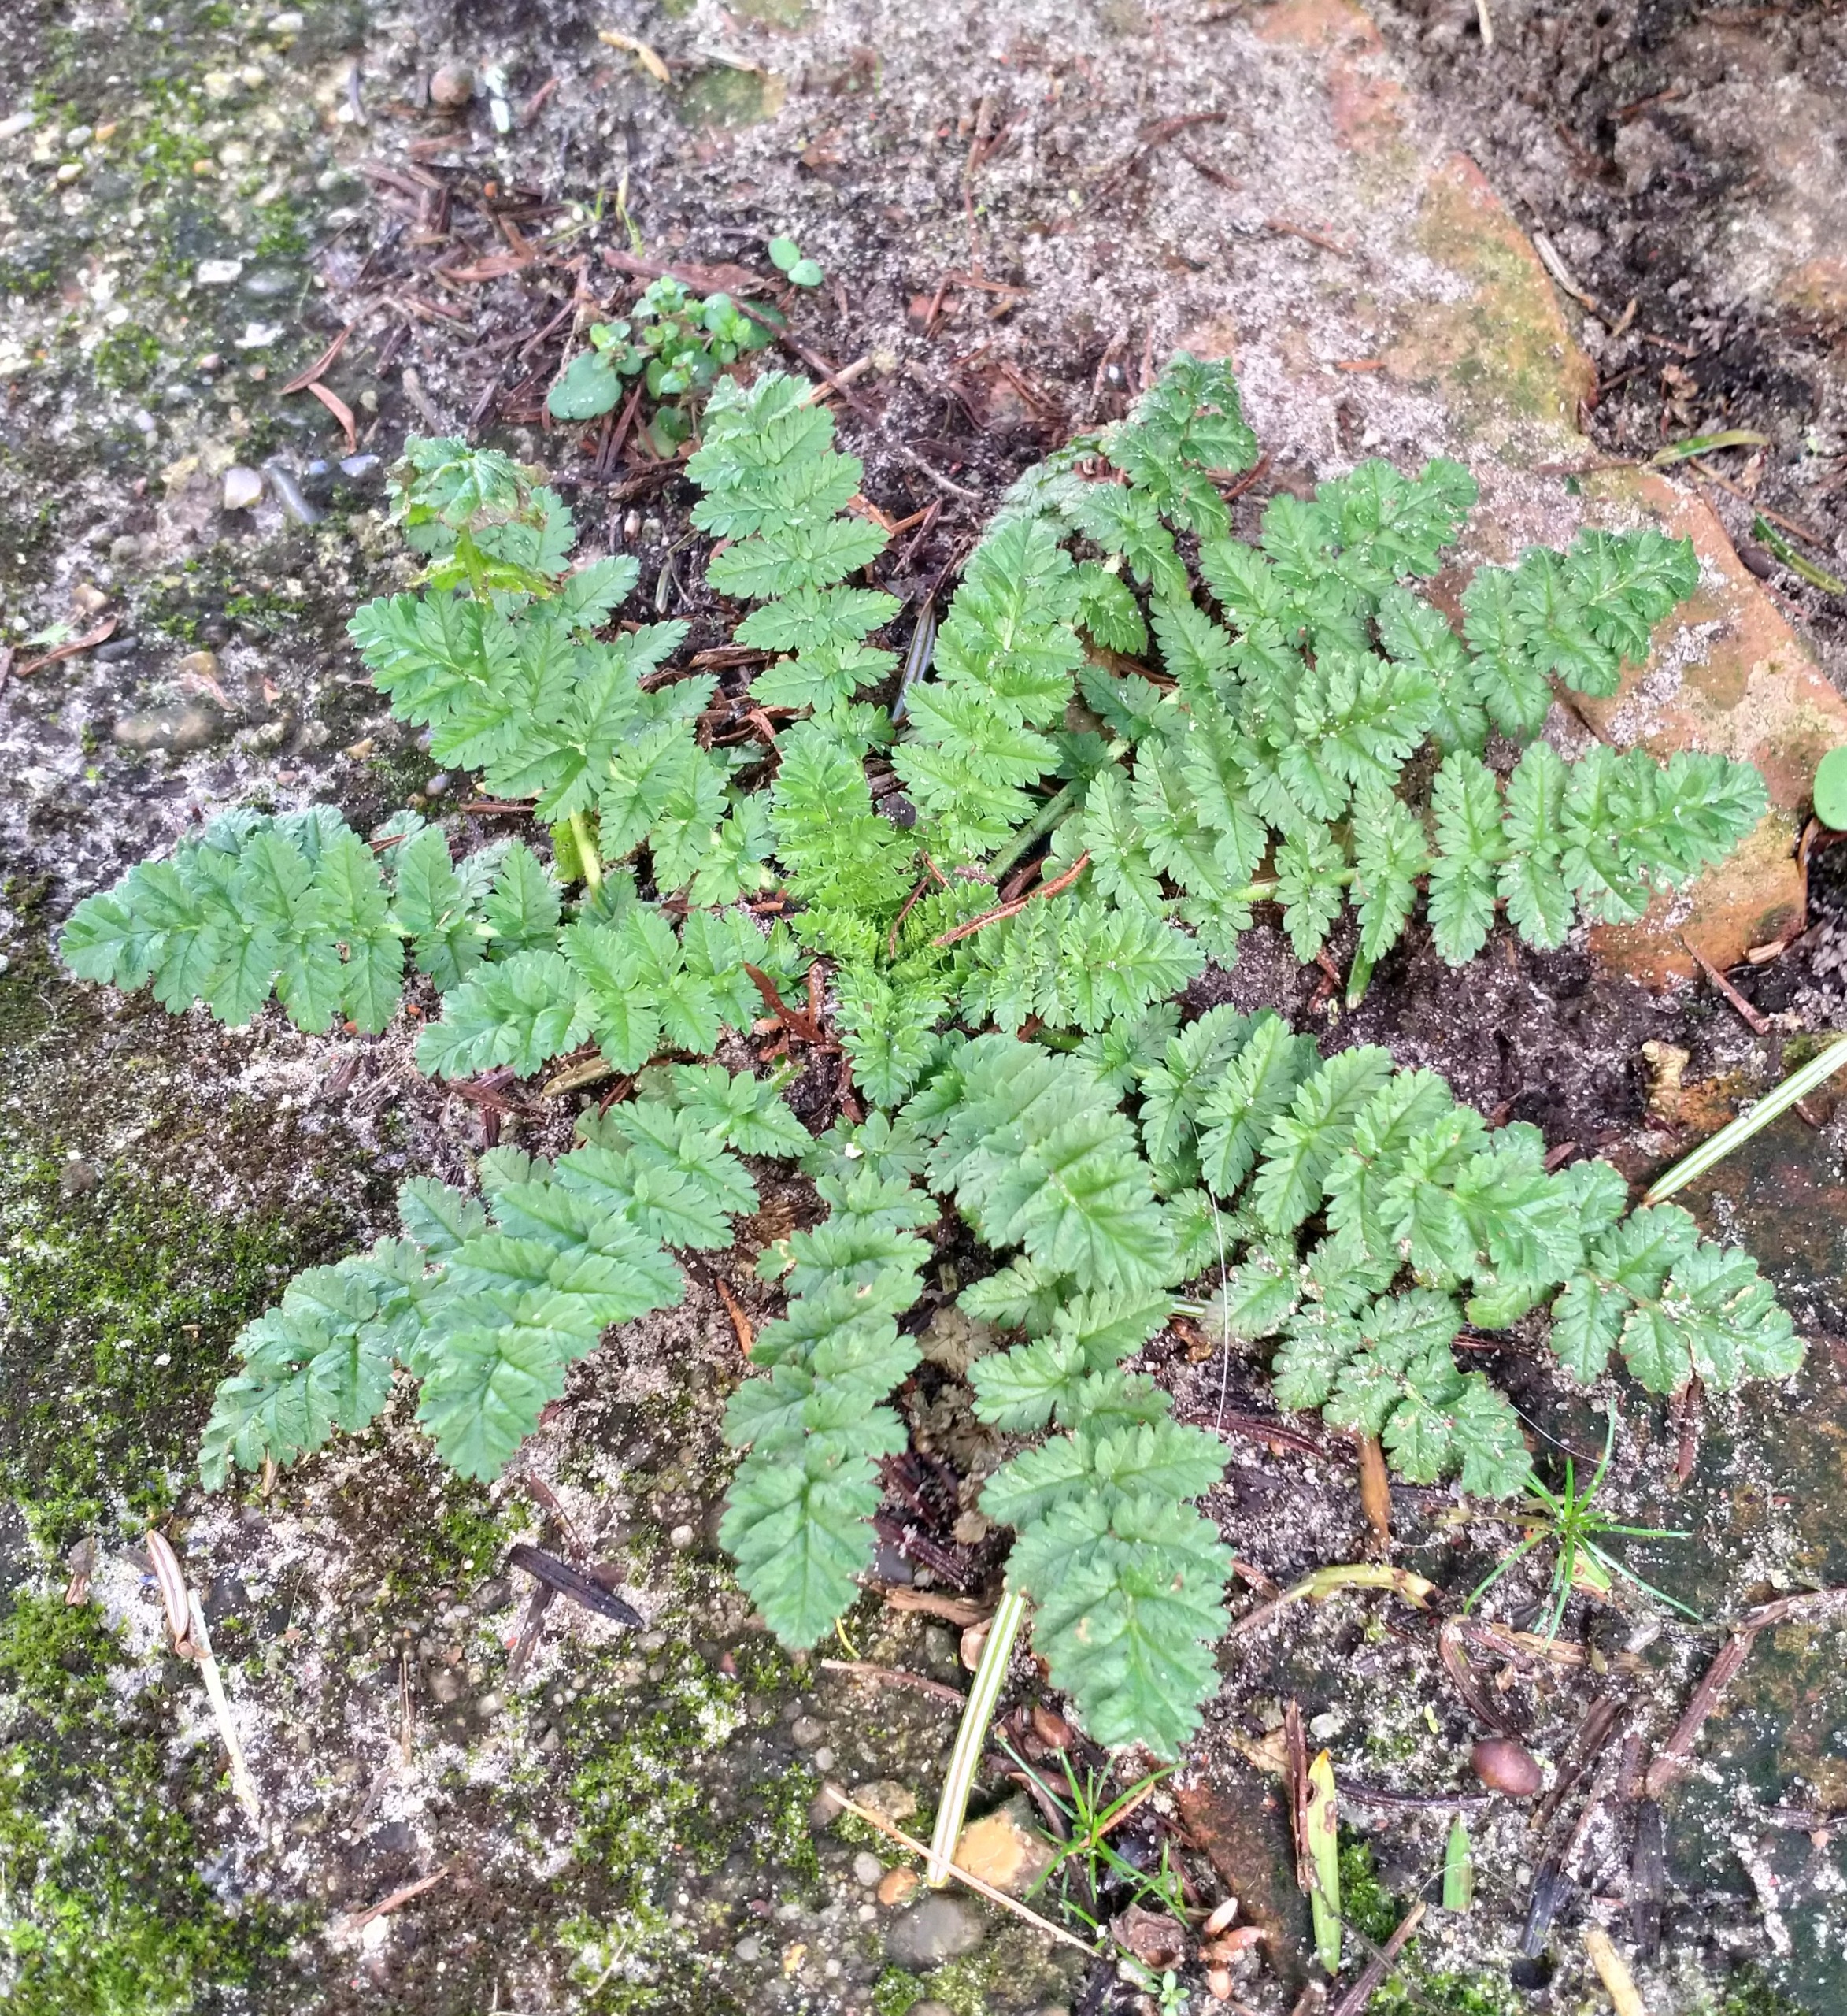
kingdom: Plantae
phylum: Tracheophyta
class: Magnoliopsida
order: Geraniales
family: Geraniaceae
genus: Erodium
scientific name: Erodium cicutarium
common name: Hejrenæb
